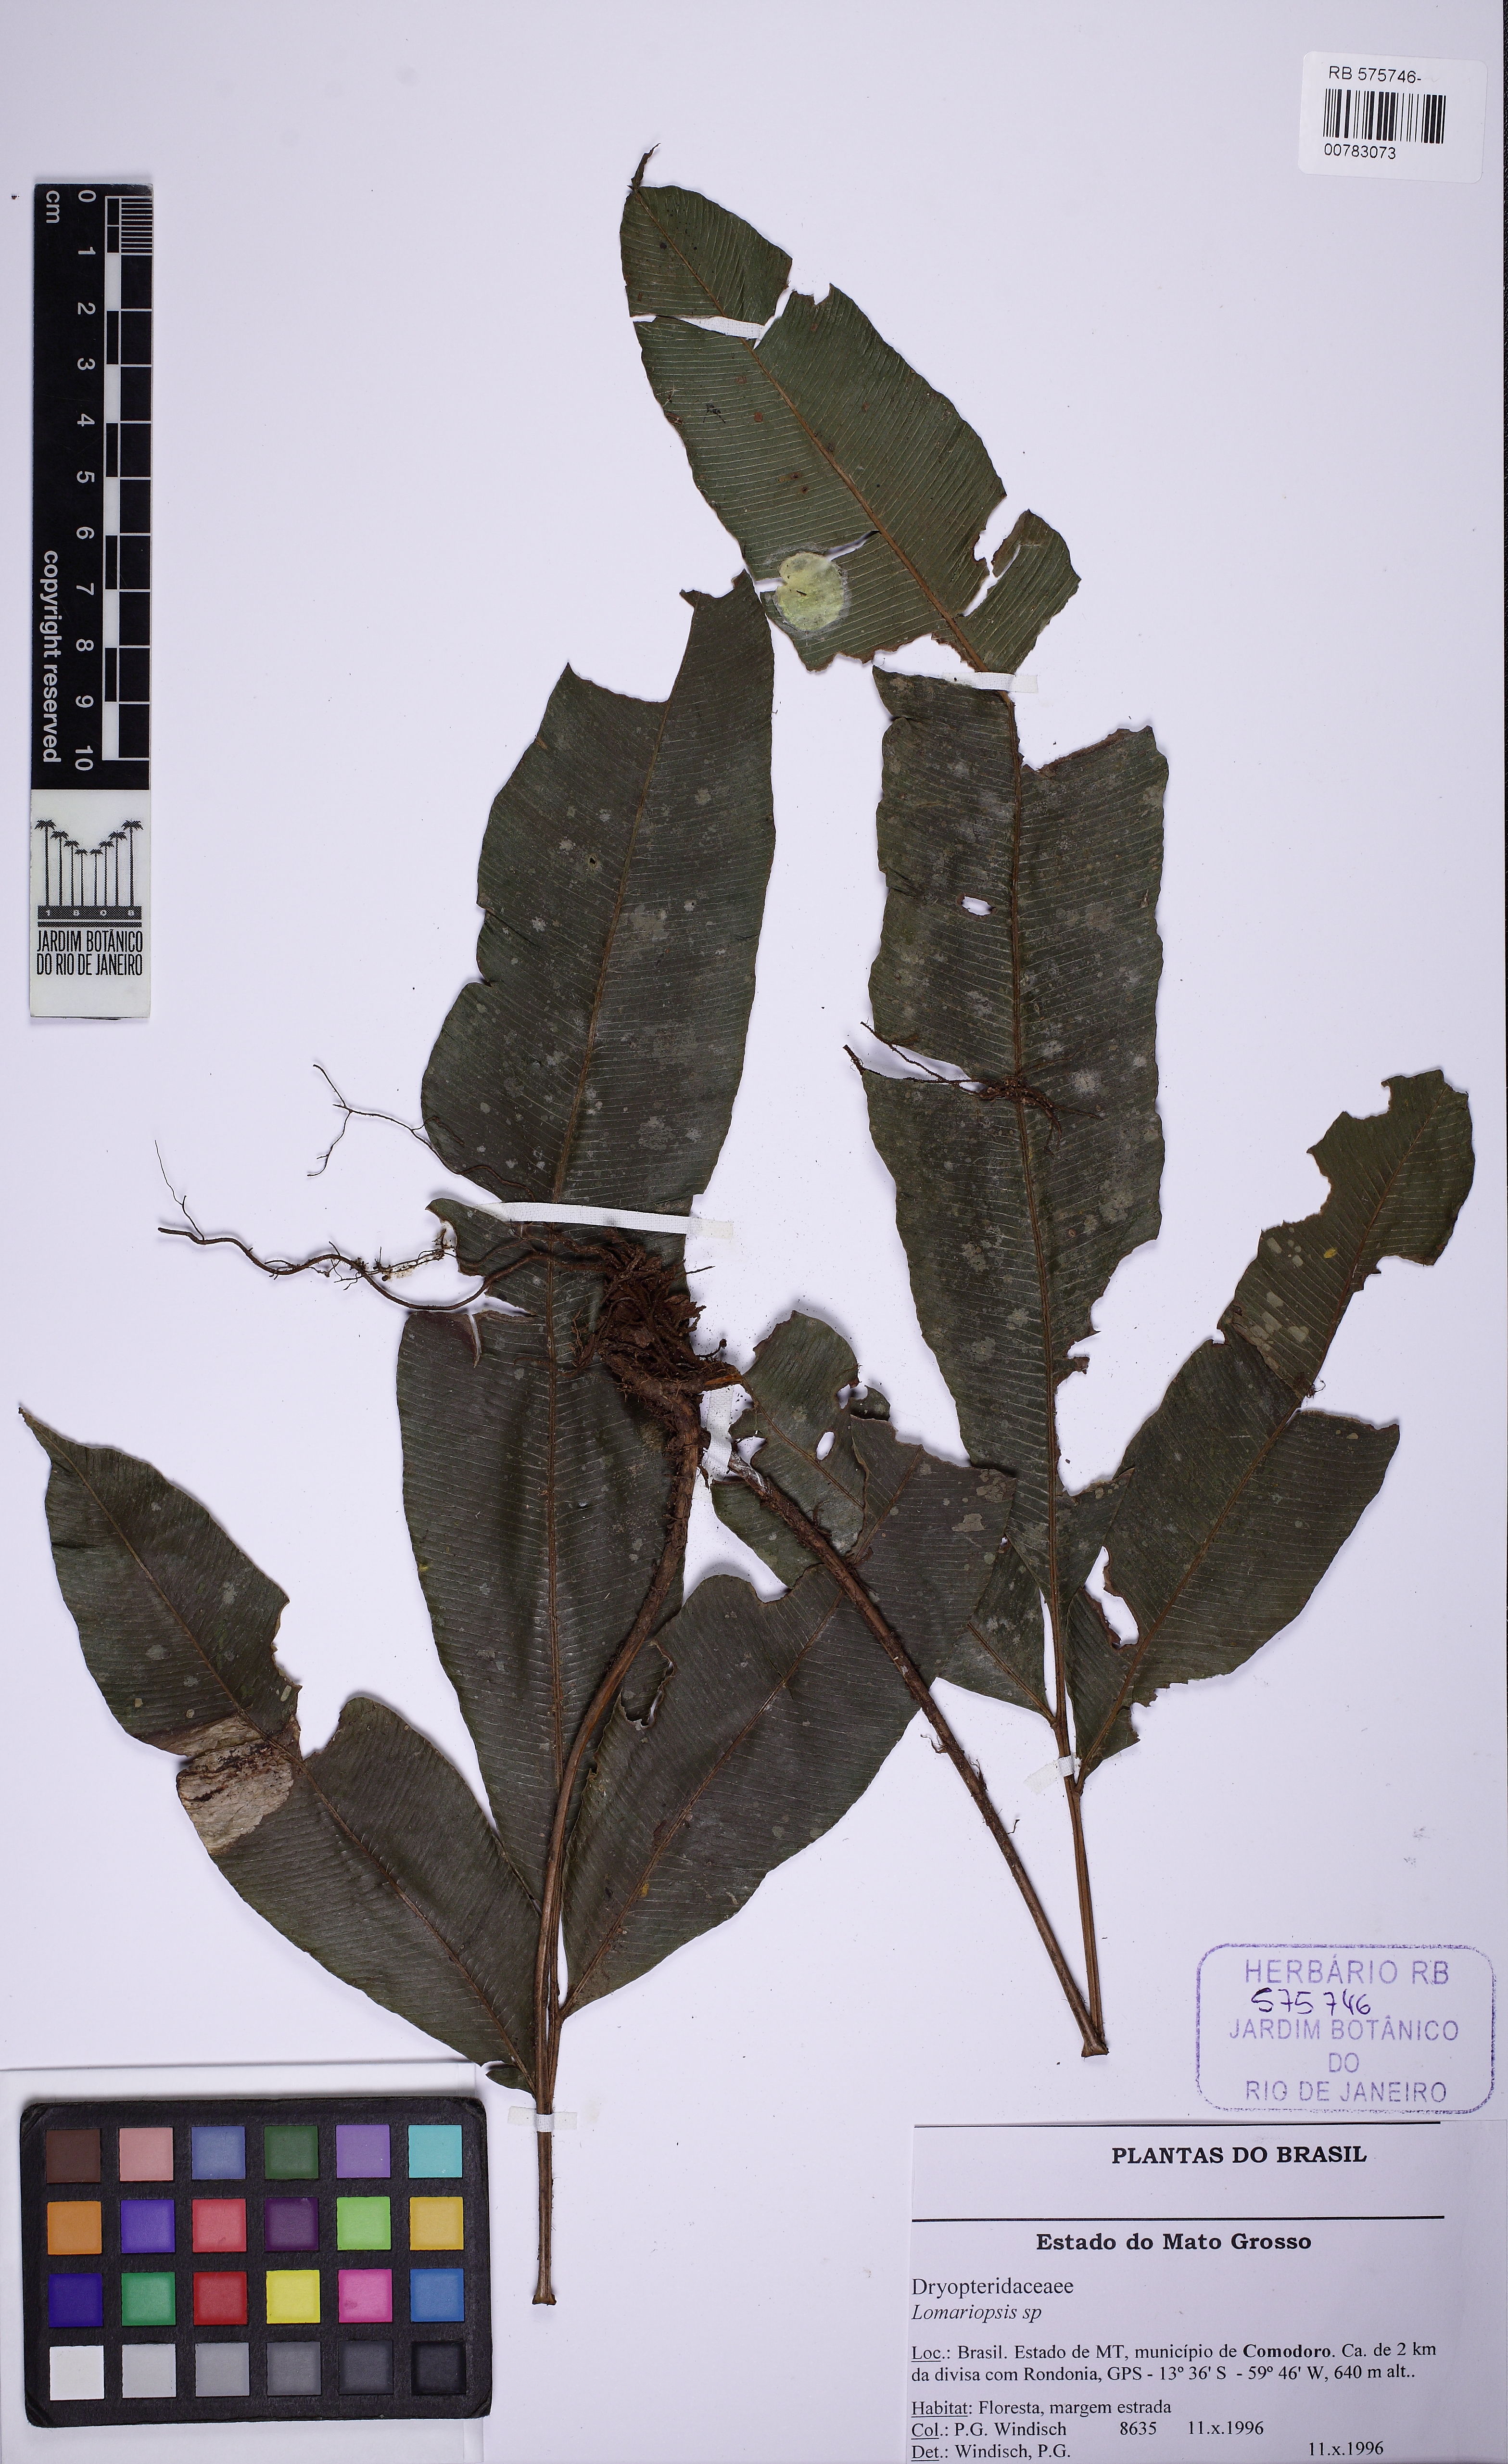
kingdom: Plantae
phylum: Tracheophyta
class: Polypodiopsida
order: Polypodiales
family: Lomariopsidaceae
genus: Lomariopsis
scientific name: Lomariopsis nigropaleata
